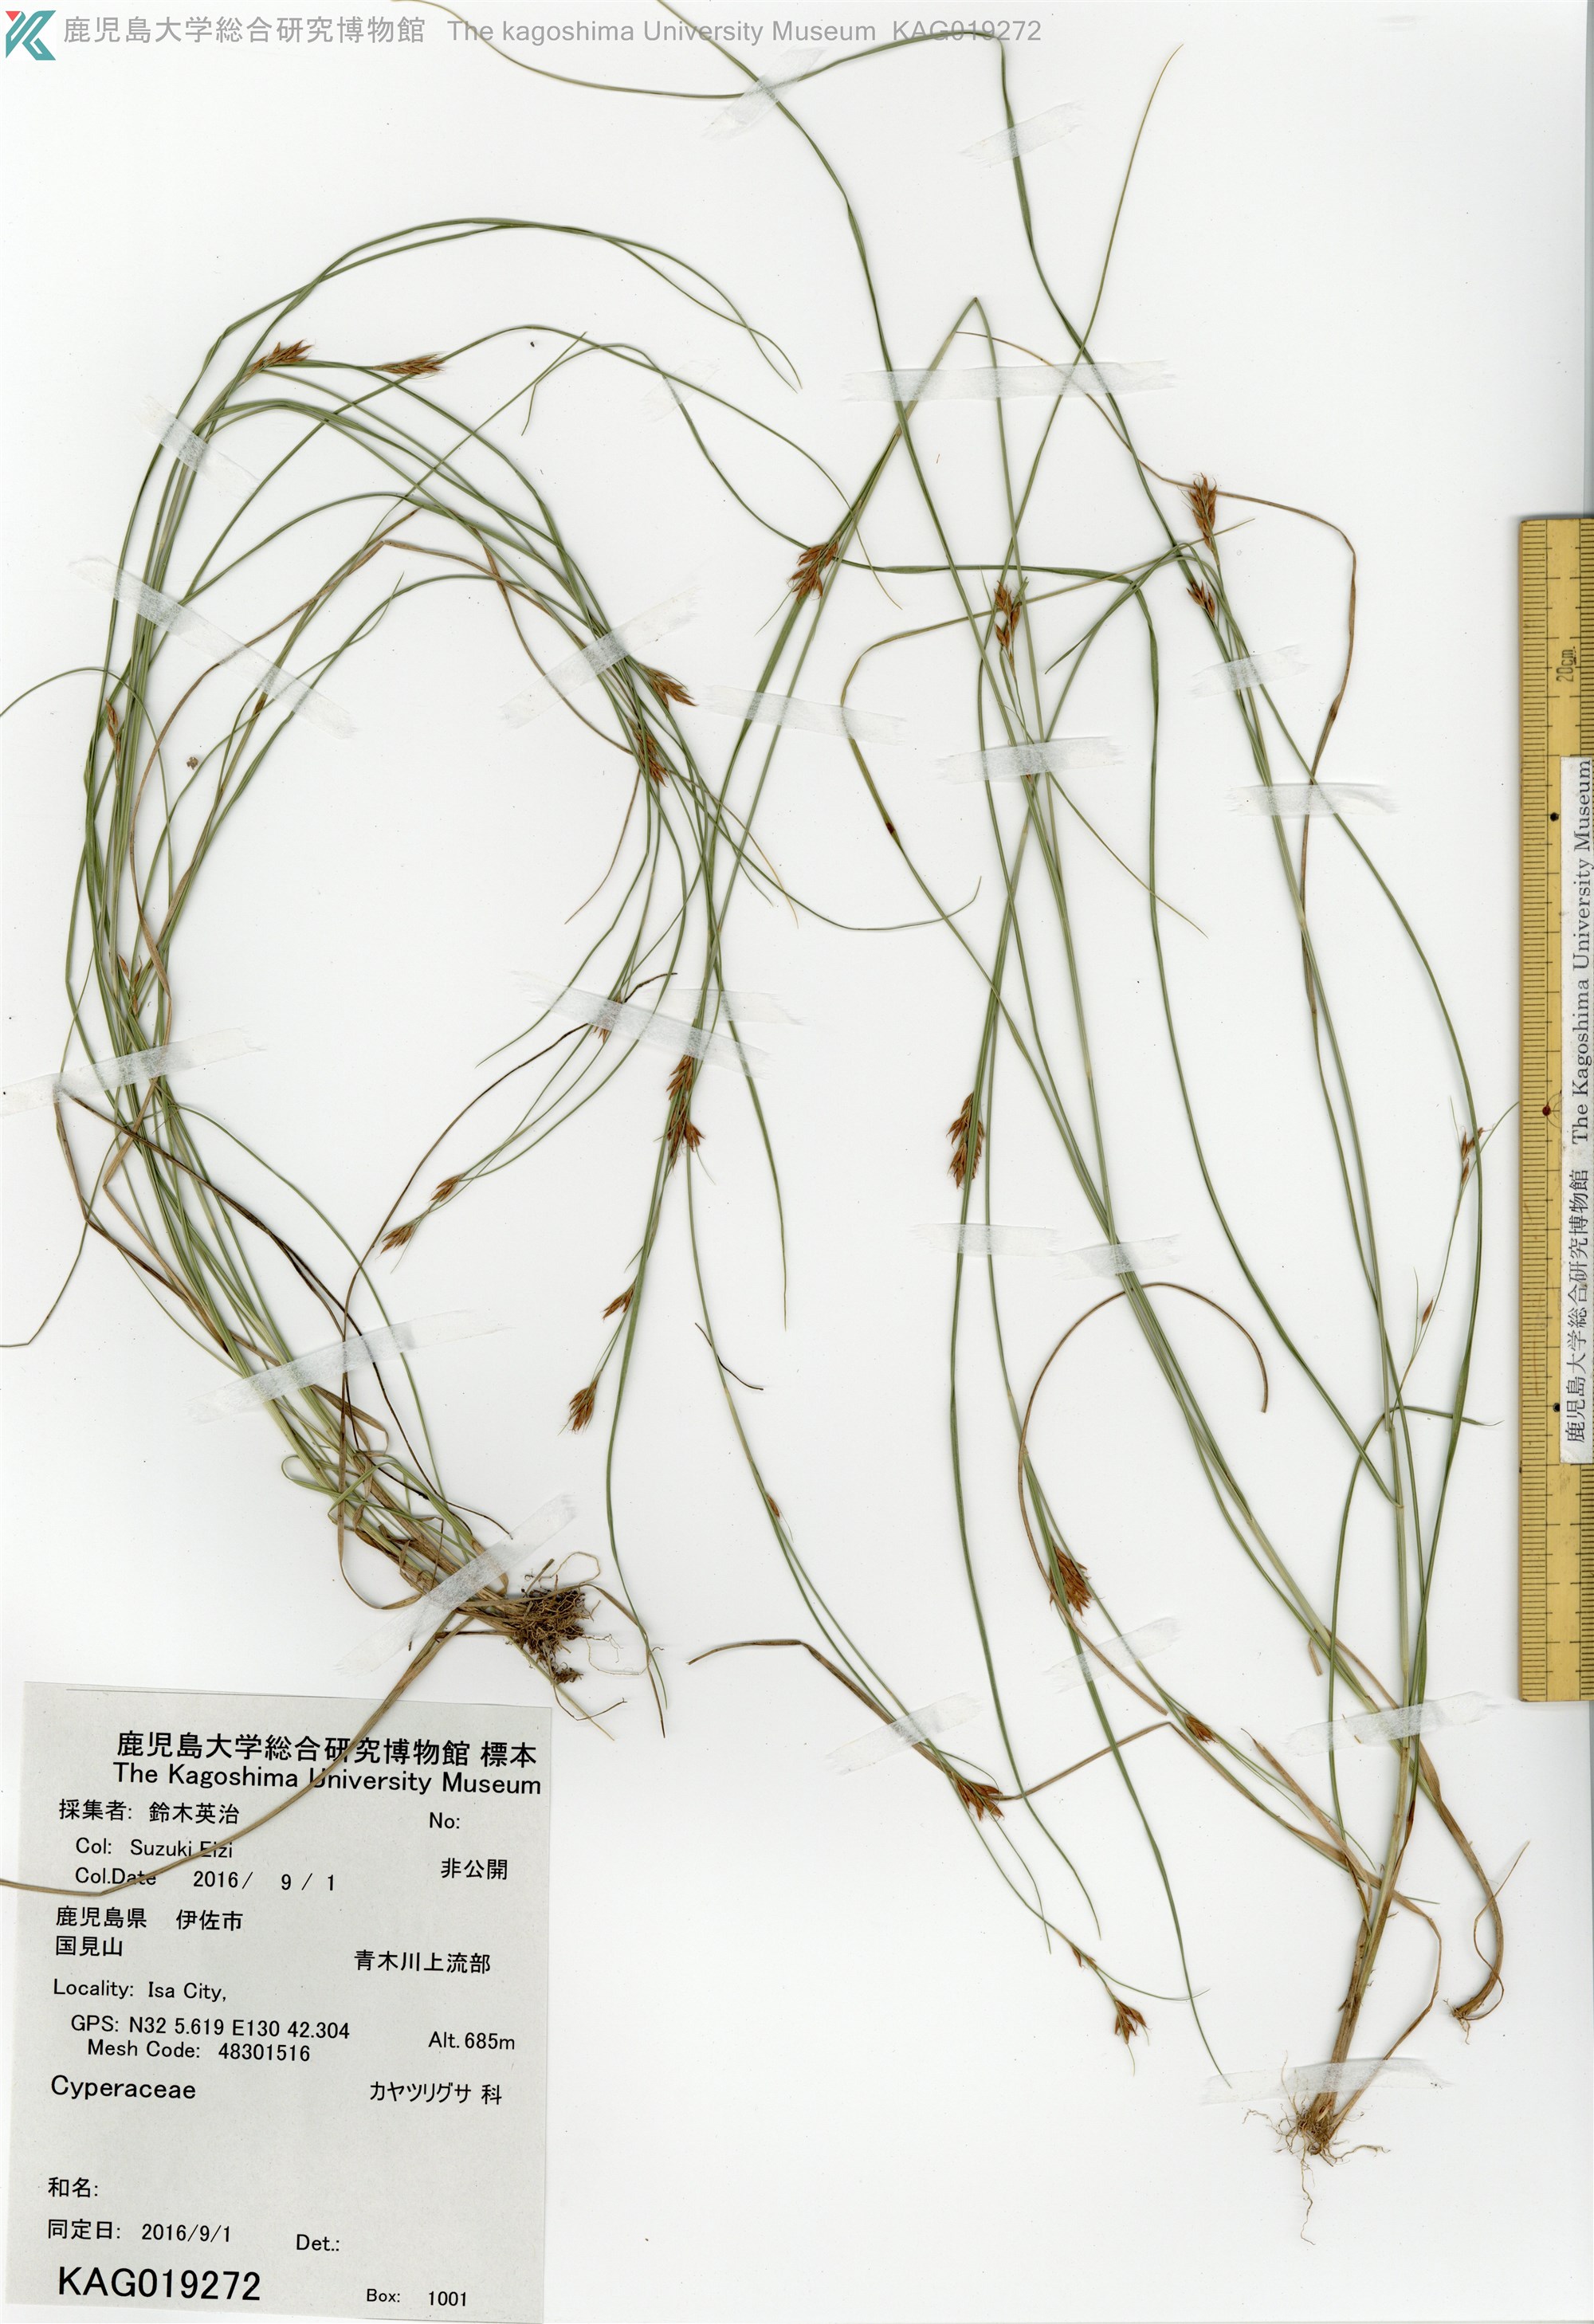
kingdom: Plantae
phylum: Tracheophyta
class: Liliopsida
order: Poales
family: Cyperaceae
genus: Eleocharis
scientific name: Eleocharis
